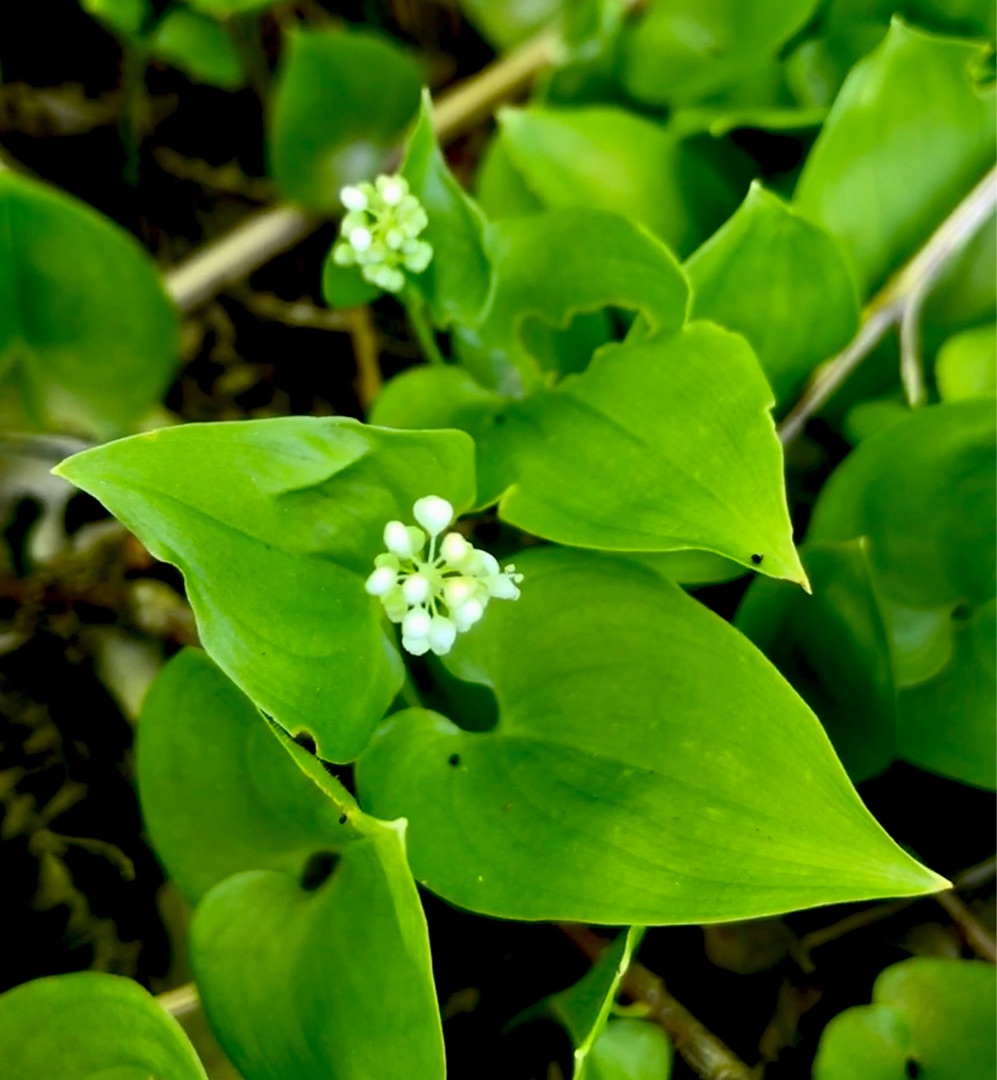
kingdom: Plantae
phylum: Tracheophyta
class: Liliopsida
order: Asparagales
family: Asparagaceae
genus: Maianthemum
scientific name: Maianthemum bifolium
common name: Majblomst
